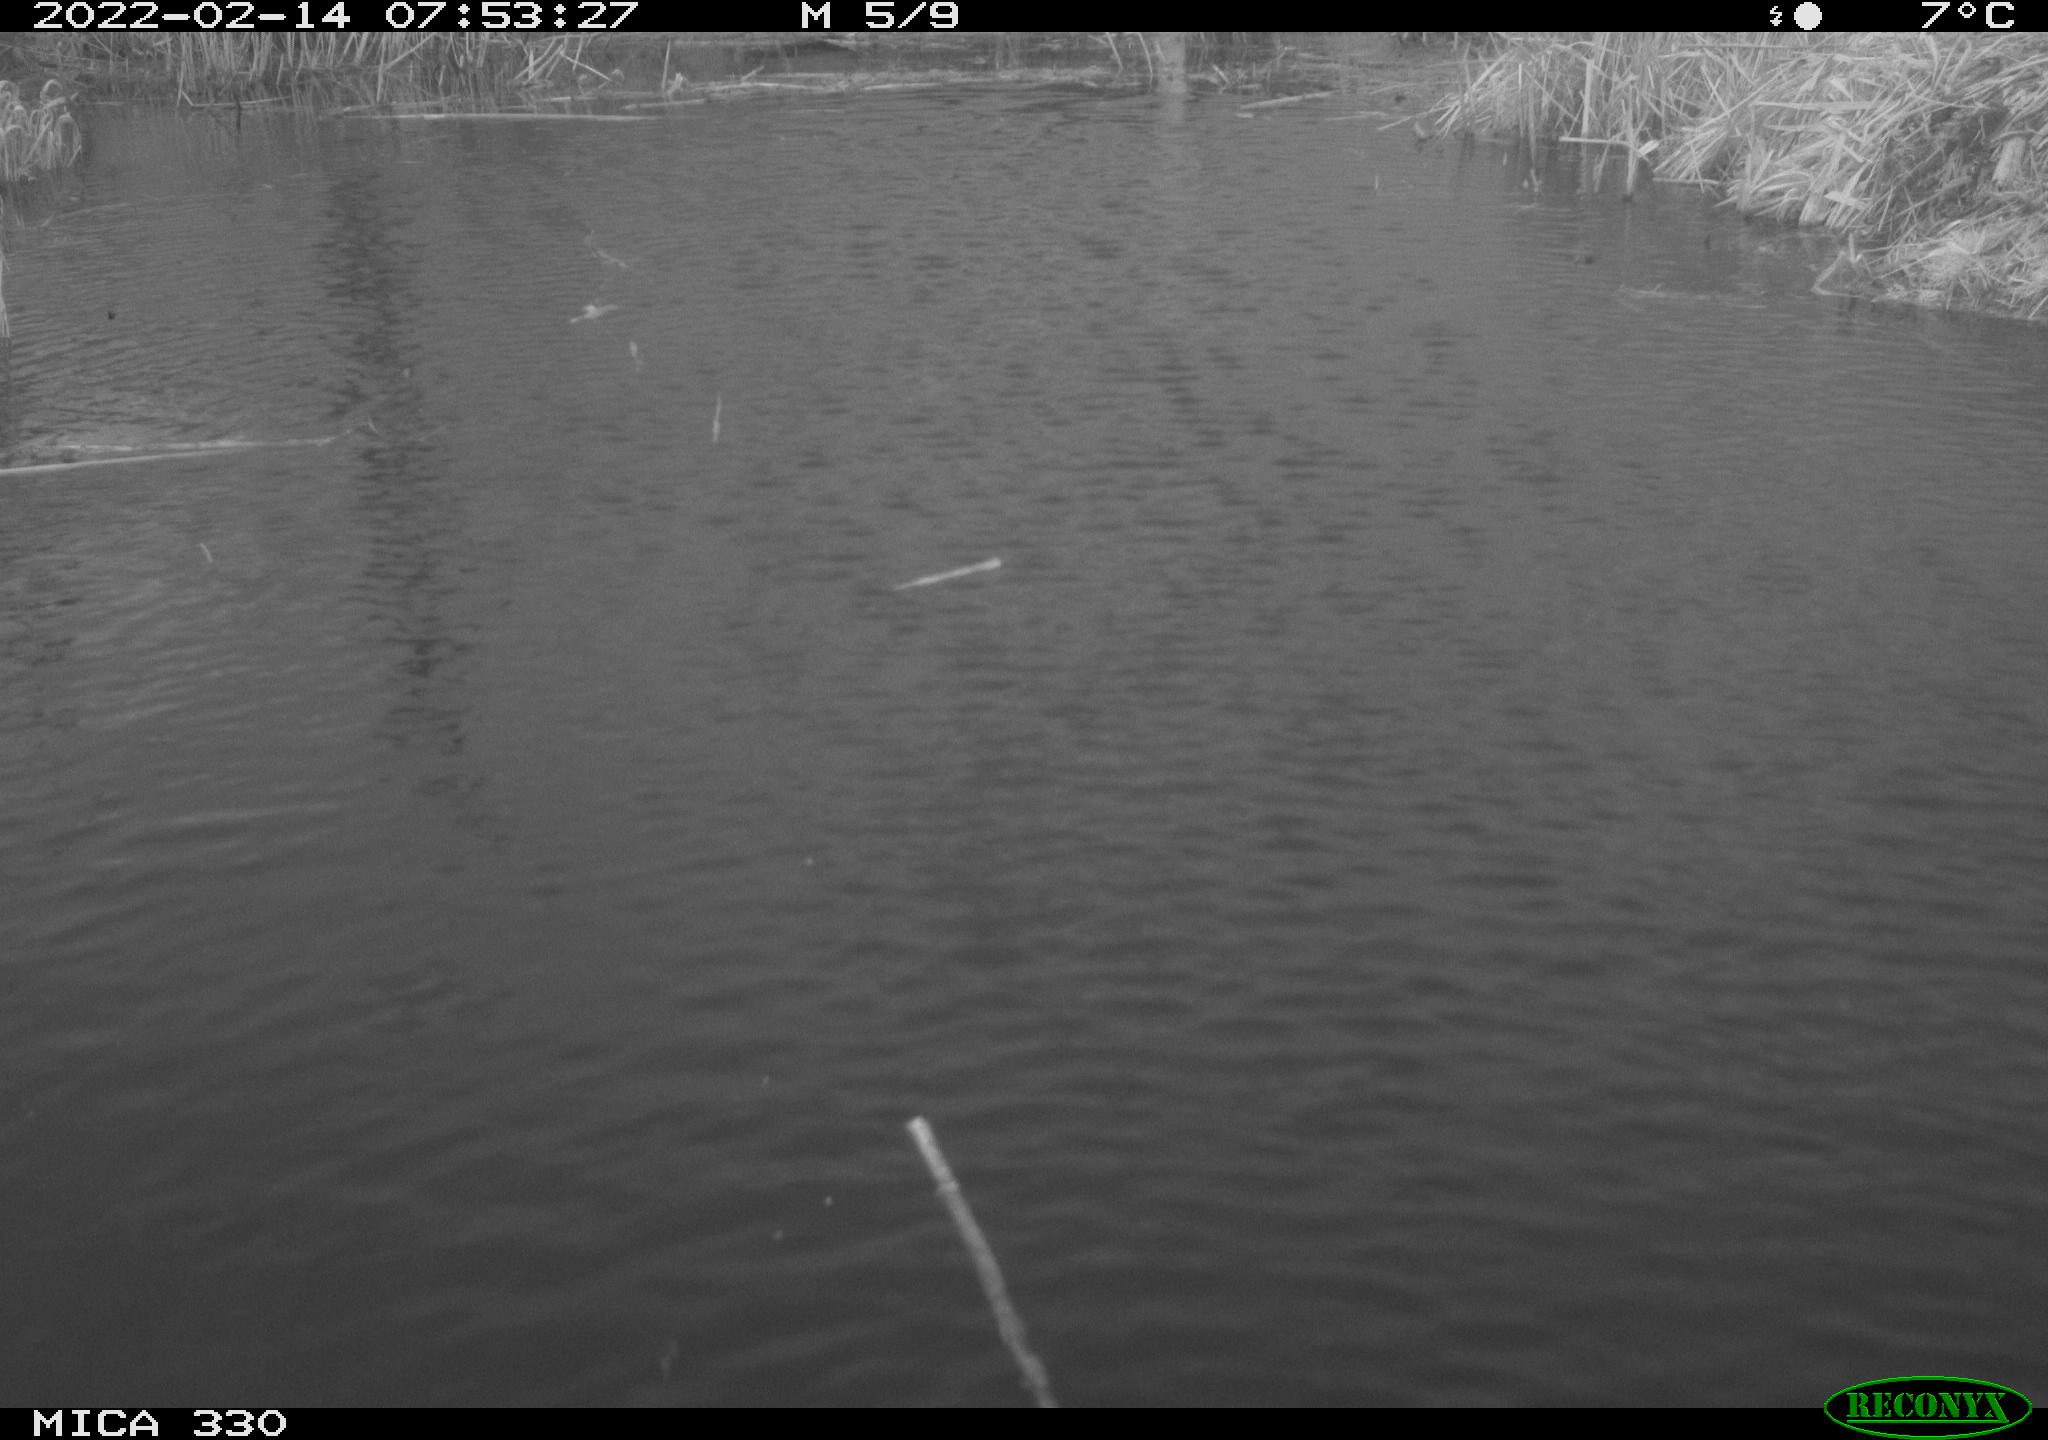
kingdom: Animalia
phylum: Chordata
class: Aves
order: Gruiformes
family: Rallidae
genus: Gallinula
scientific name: Gallinula chloropus
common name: Common moorhen
